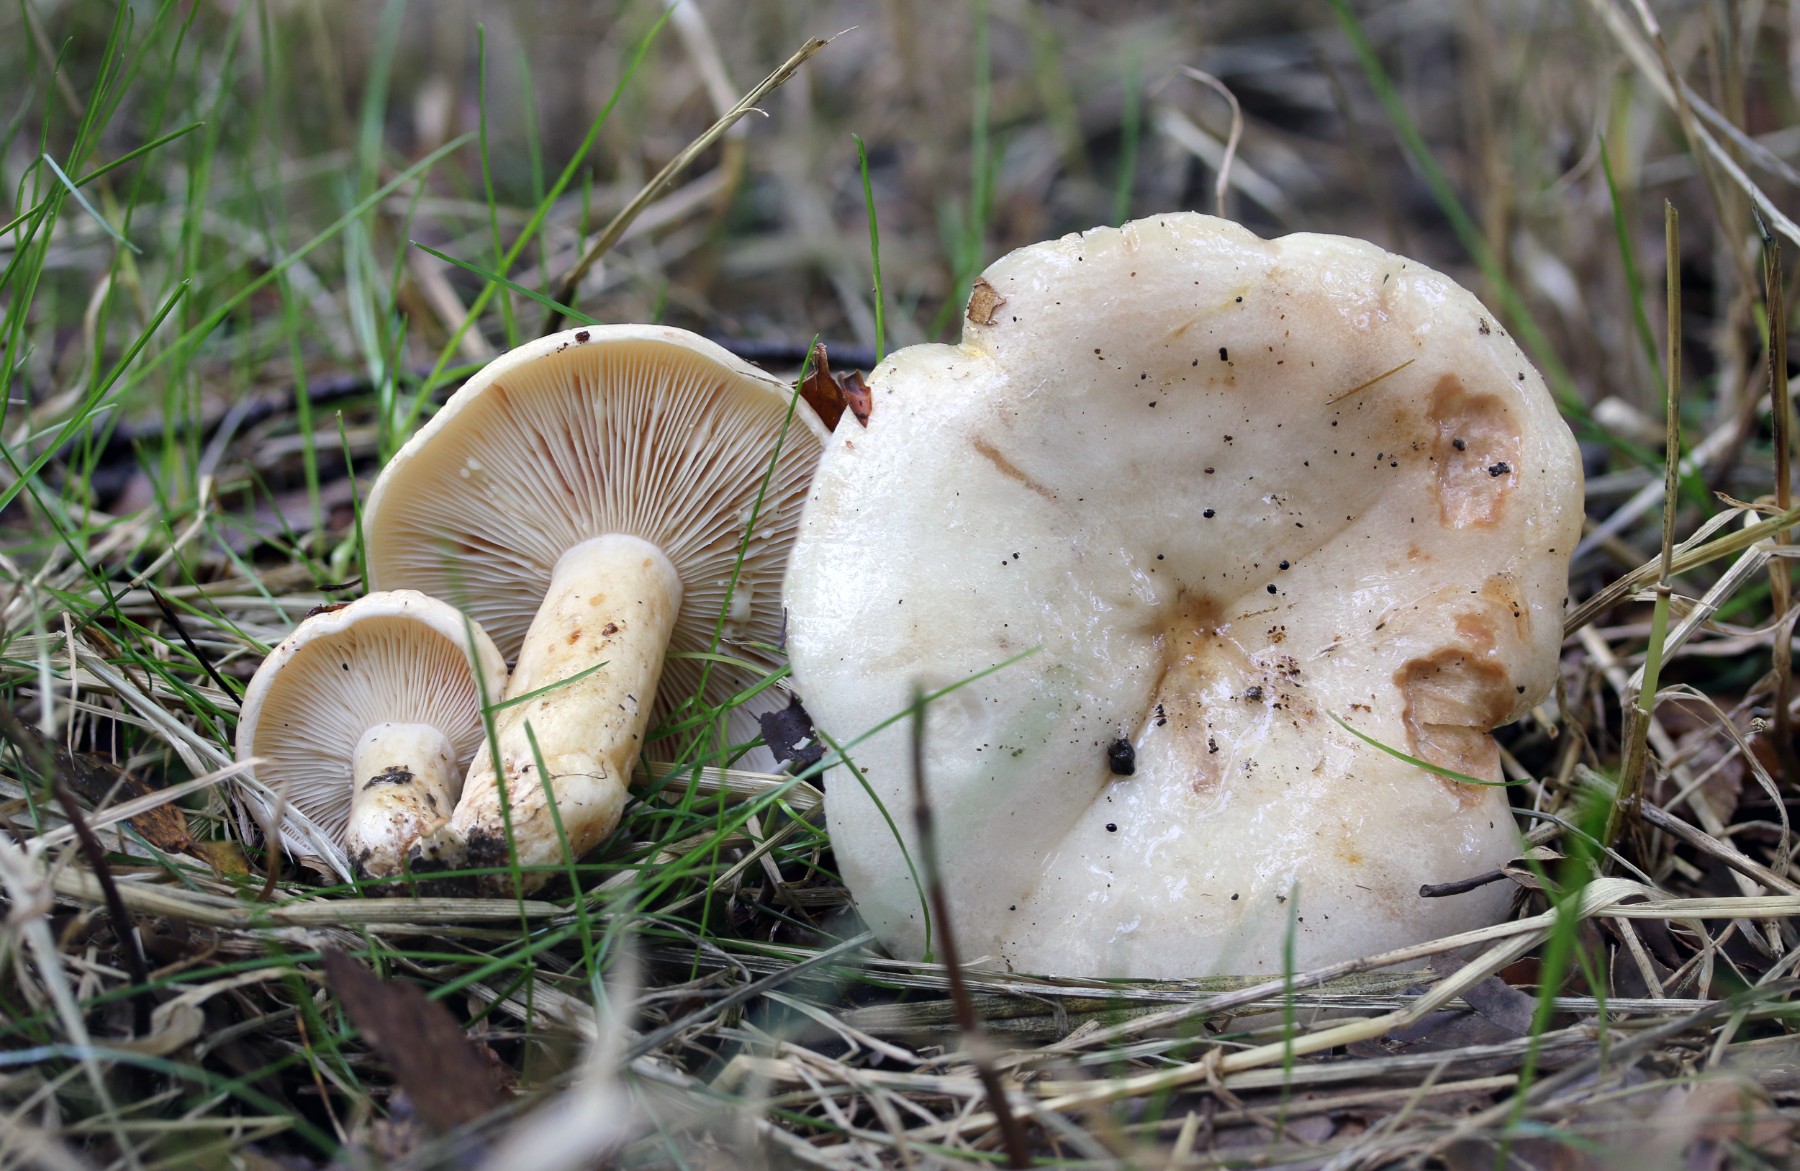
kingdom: Fungi
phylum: Basidiomycota
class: Agaricomycetes
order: Russulales
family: Russulaceae
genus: Lactarius
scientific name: Lactarius pallidus
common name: bleg mælkehat
